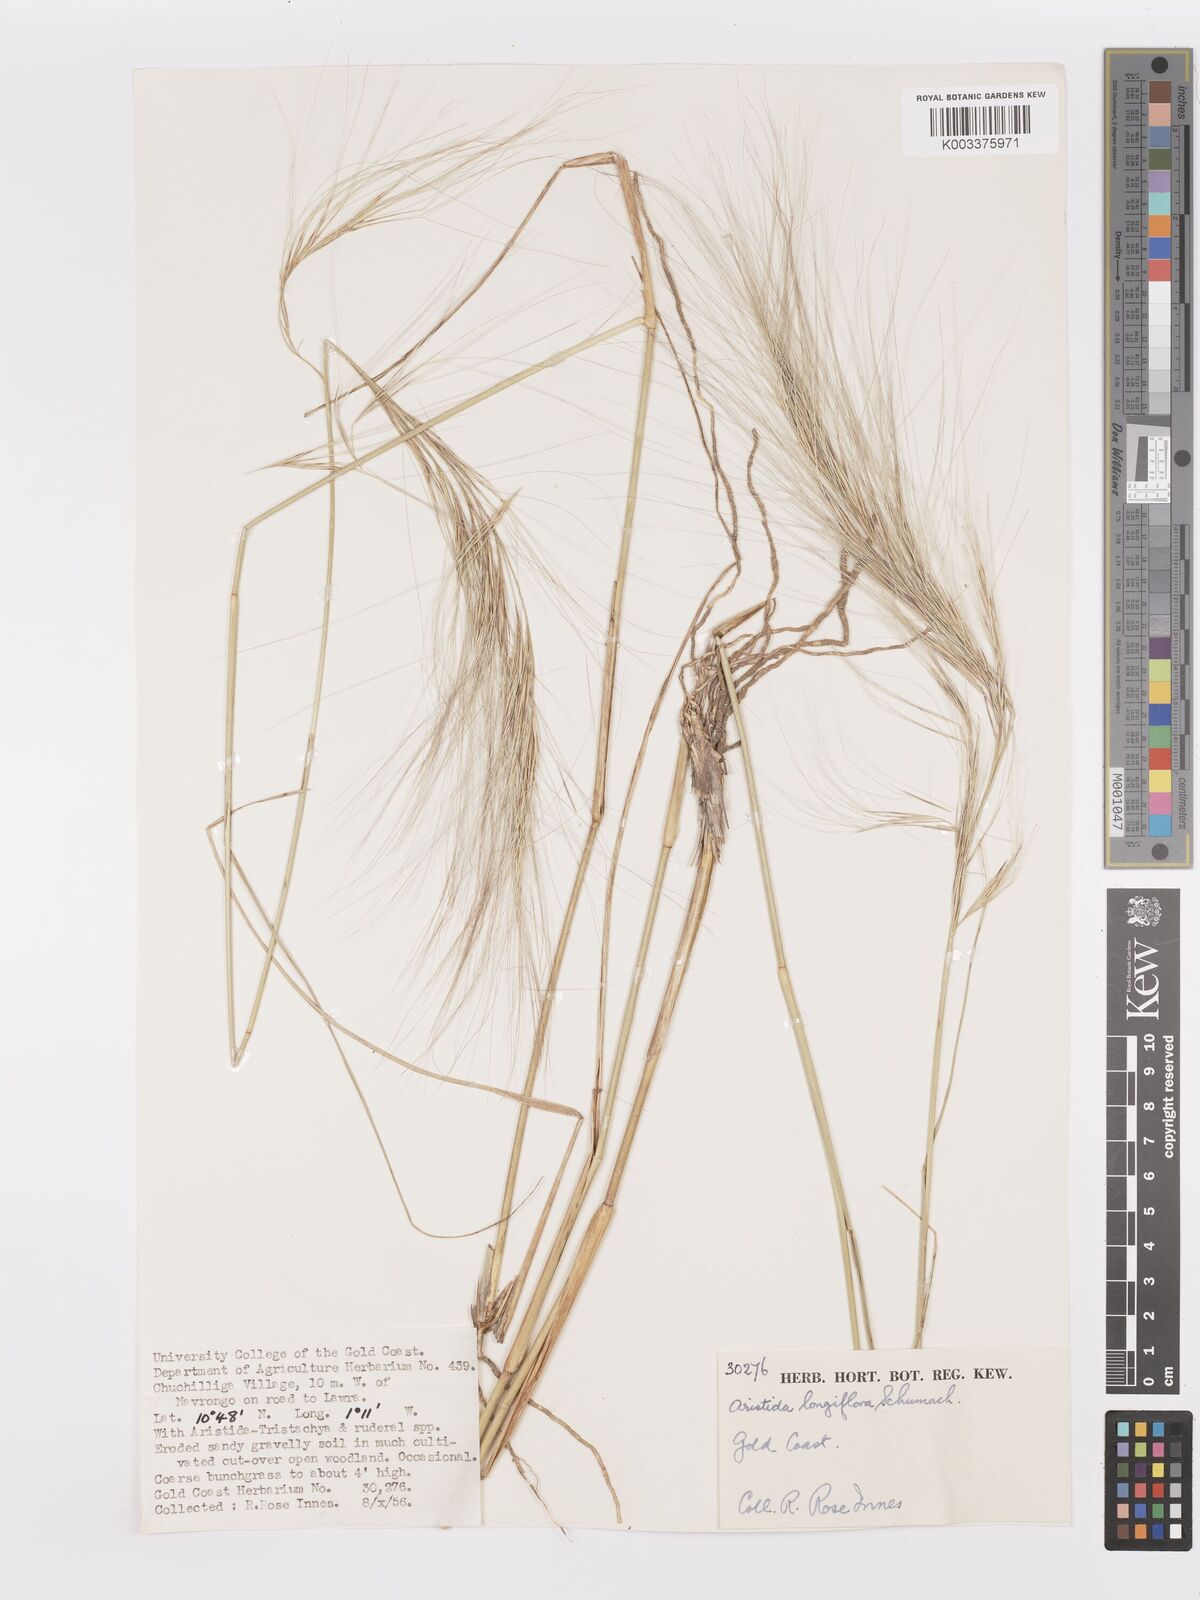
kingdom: Plantae
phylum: Tracheophyta
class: Liliopsida
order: Poales
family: Poaceae
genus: Aristida
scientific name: Aristida sieberiana
